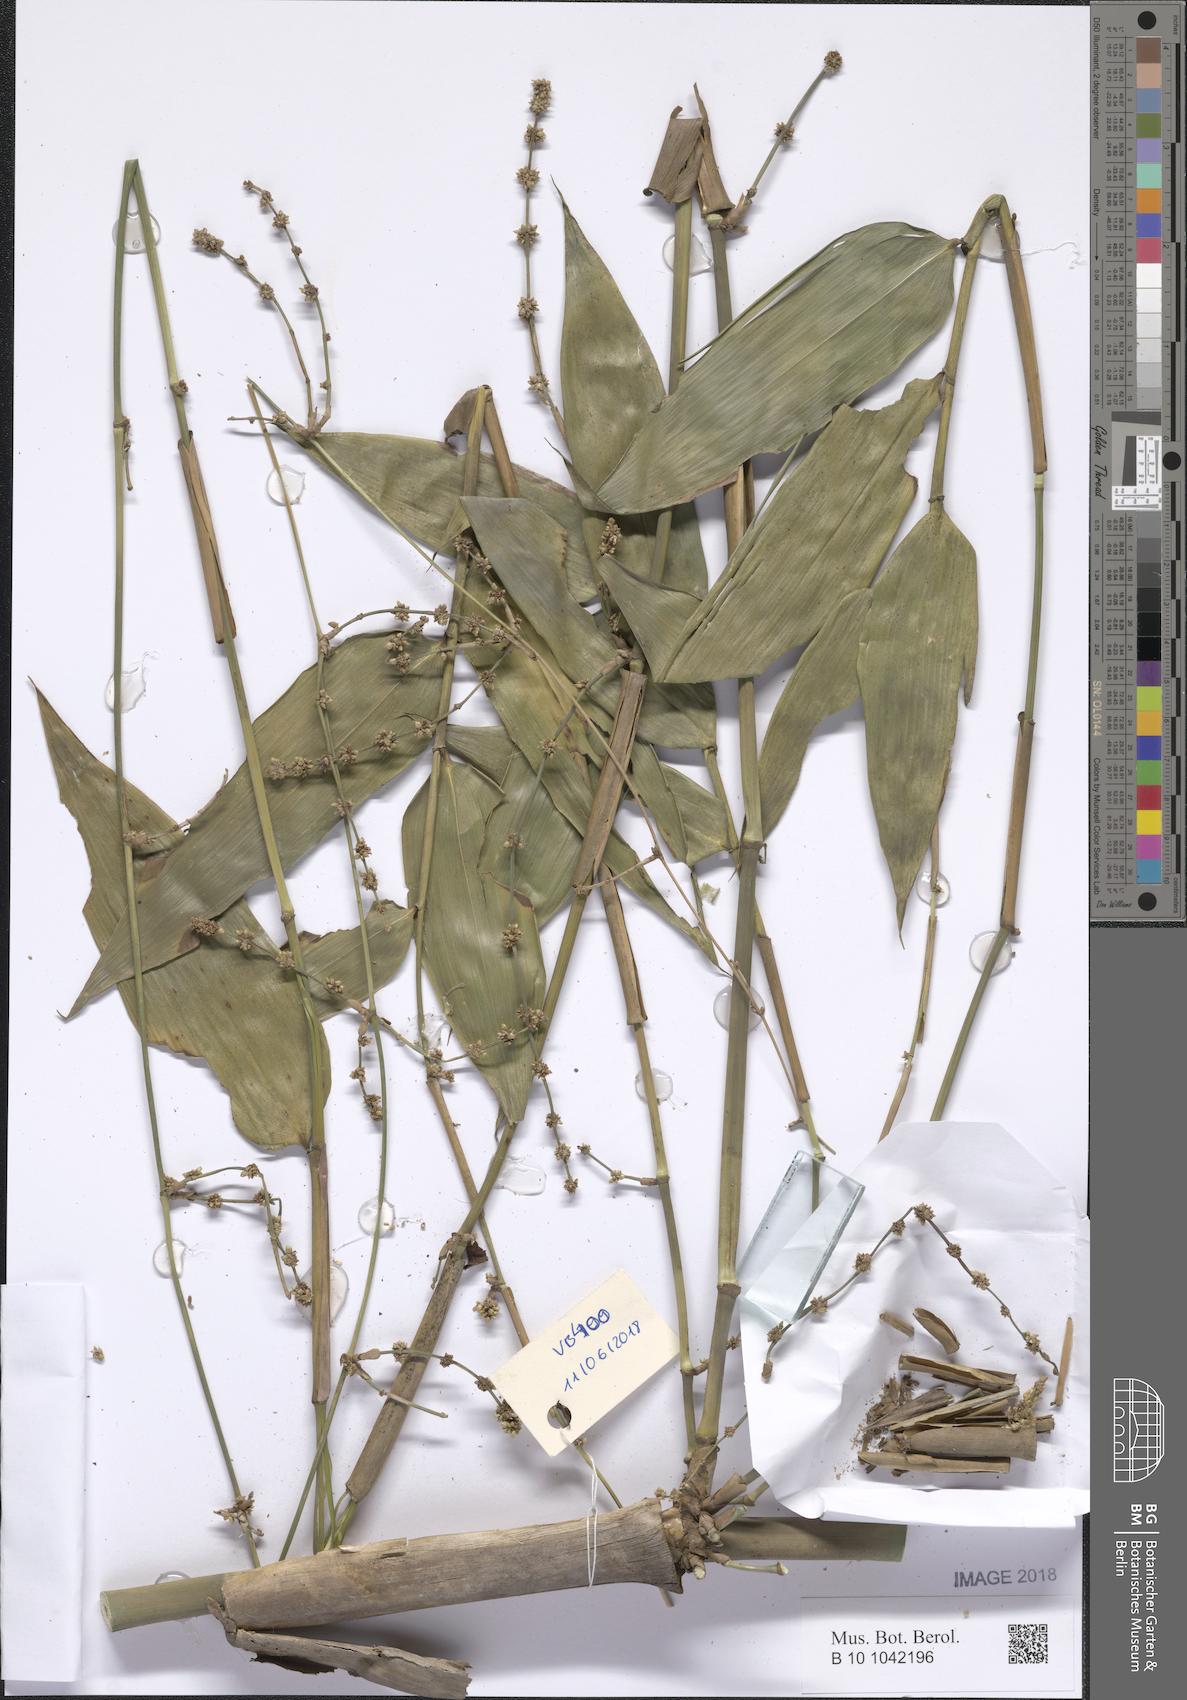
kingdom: Plantae
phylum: Tracheophyta
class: Liliopsida
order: Poales
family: Poaceae
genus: Bambusa
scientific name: Bambusa
